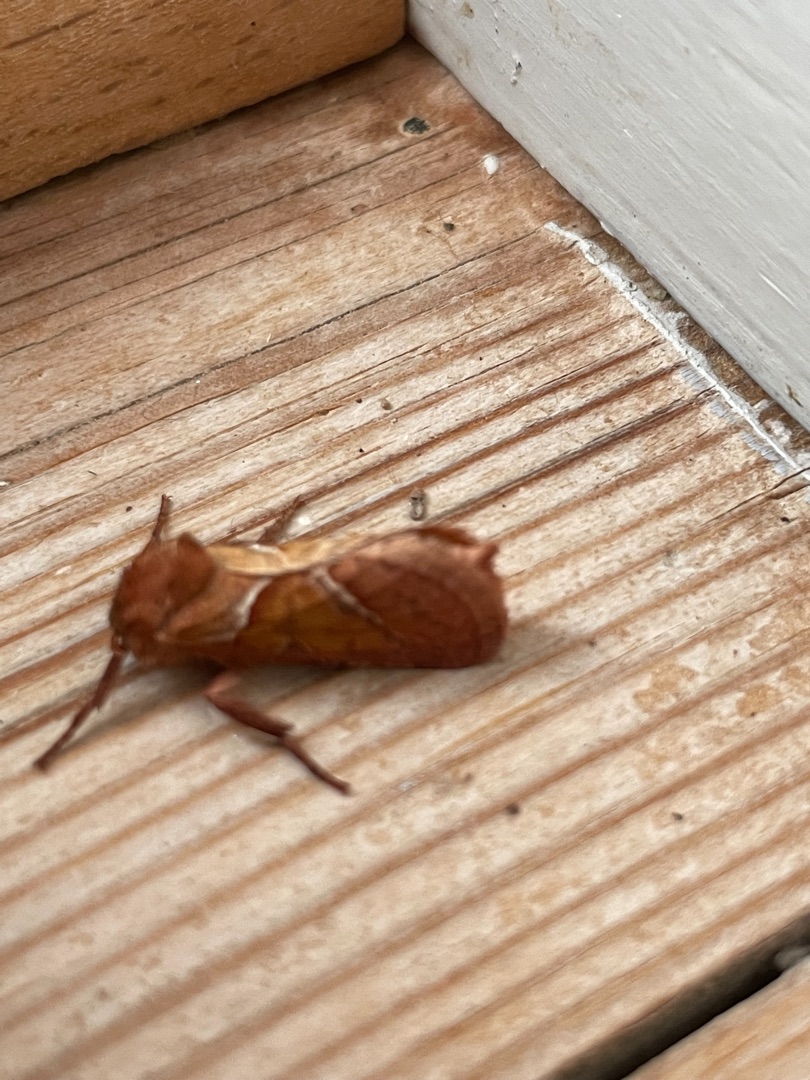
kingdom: Animalia
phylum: Arthropoda
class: Insecta
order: Lepidoptera
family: Hepialidae
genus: Triodia
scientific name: Triodia sylvina
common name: Skræpperodæder
